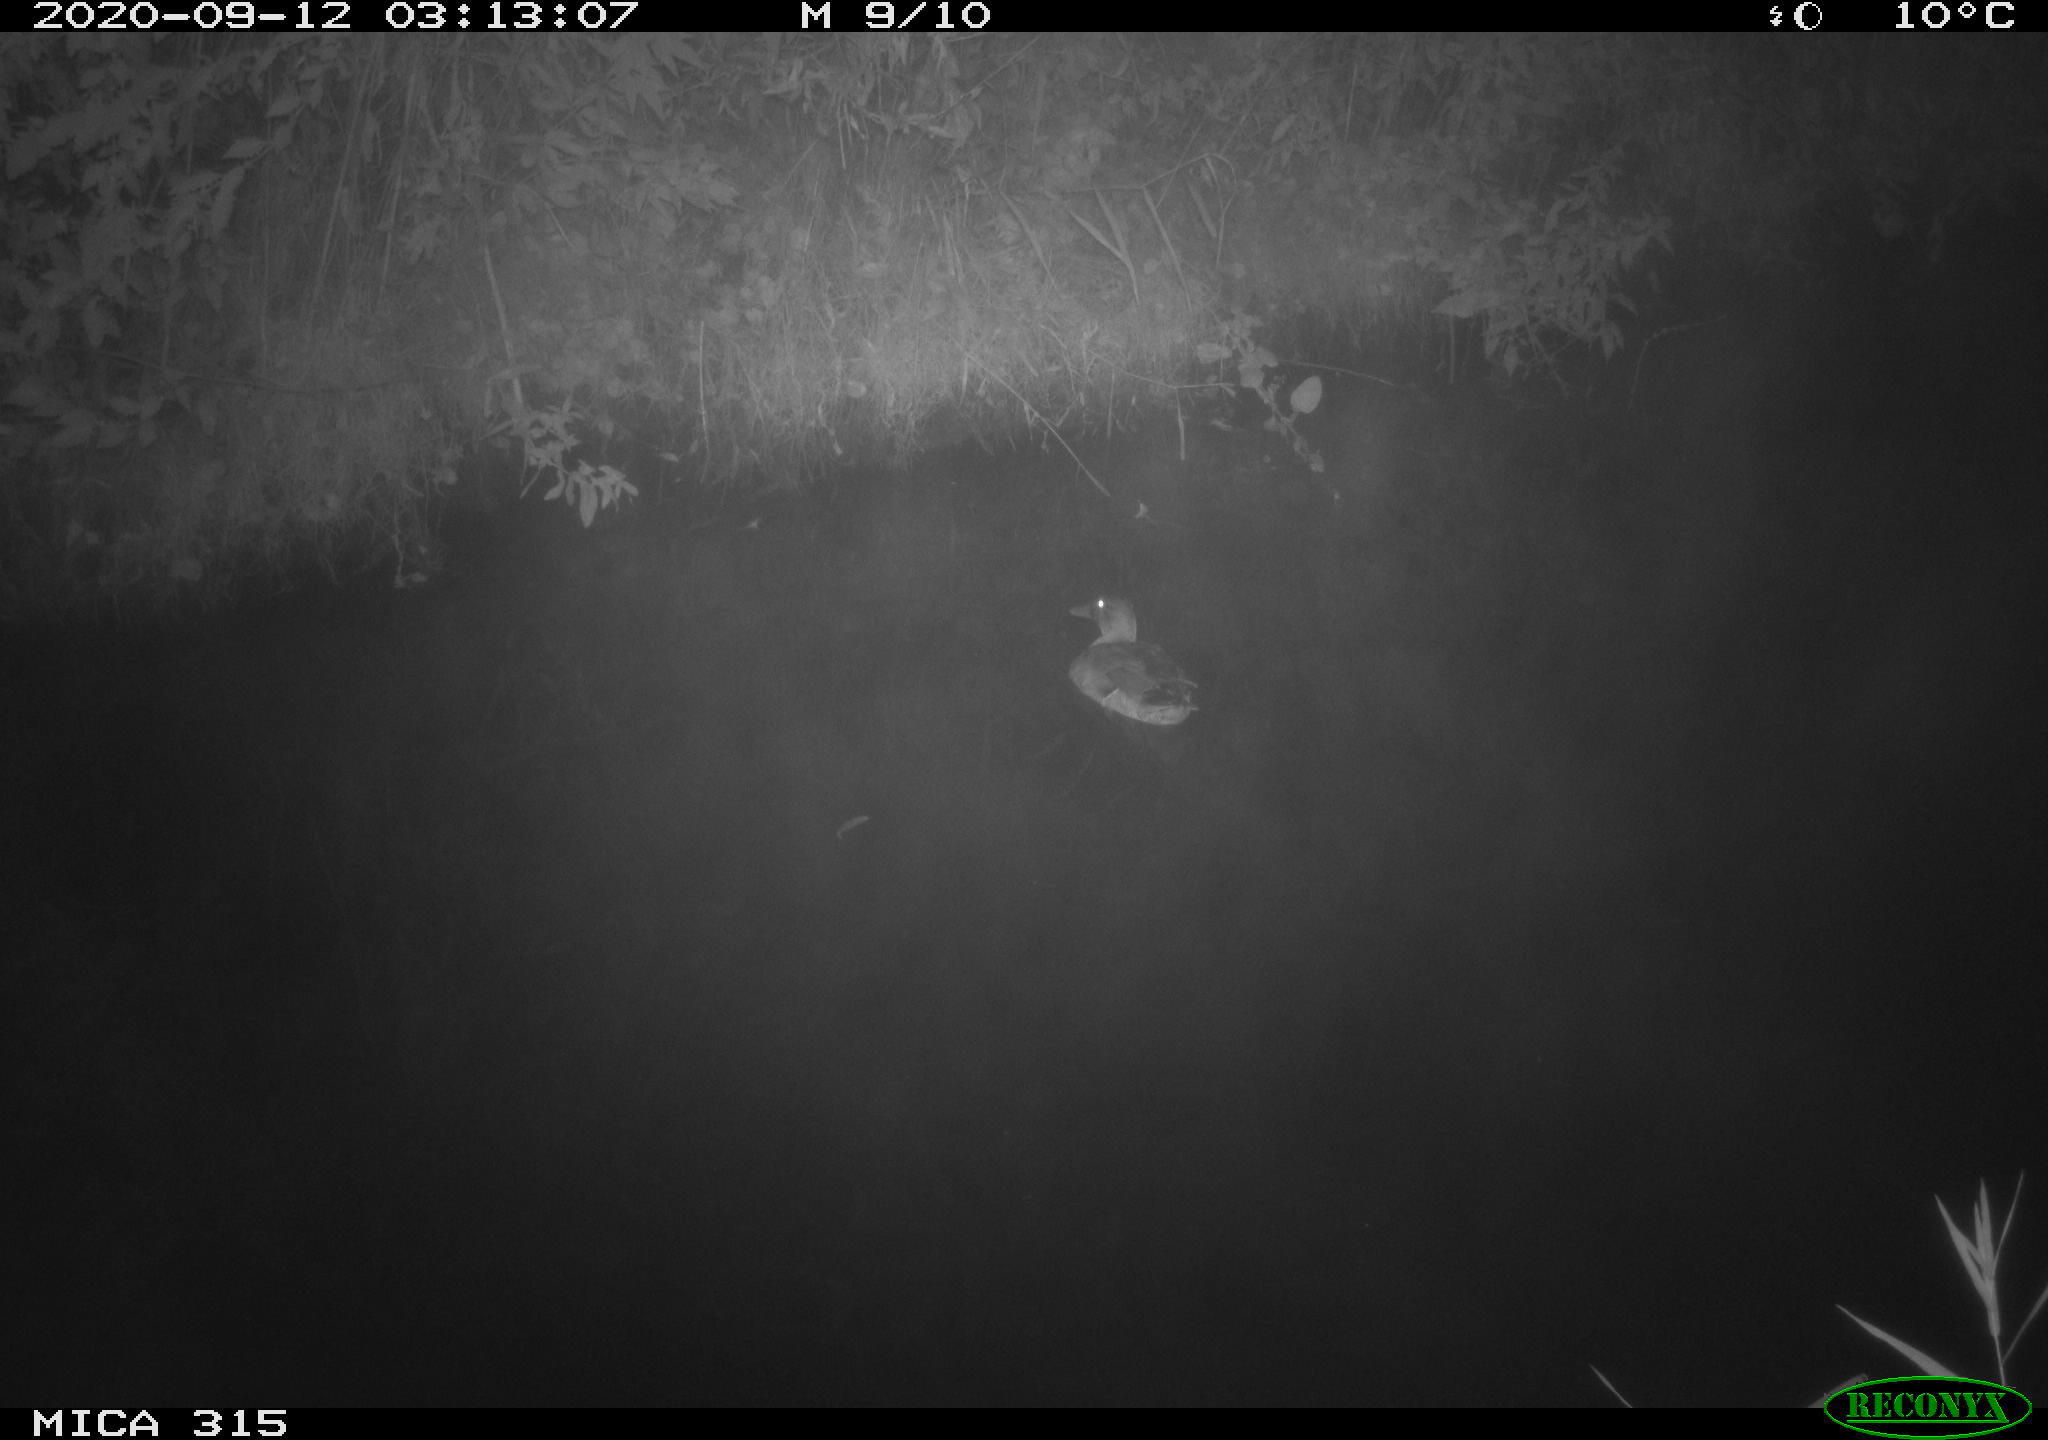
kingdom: Animalia
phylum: Chordata
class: Aves
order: Anseriformes
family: Anatidae
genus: Anas
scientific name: Anas platyrhynchos
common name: Mallard
